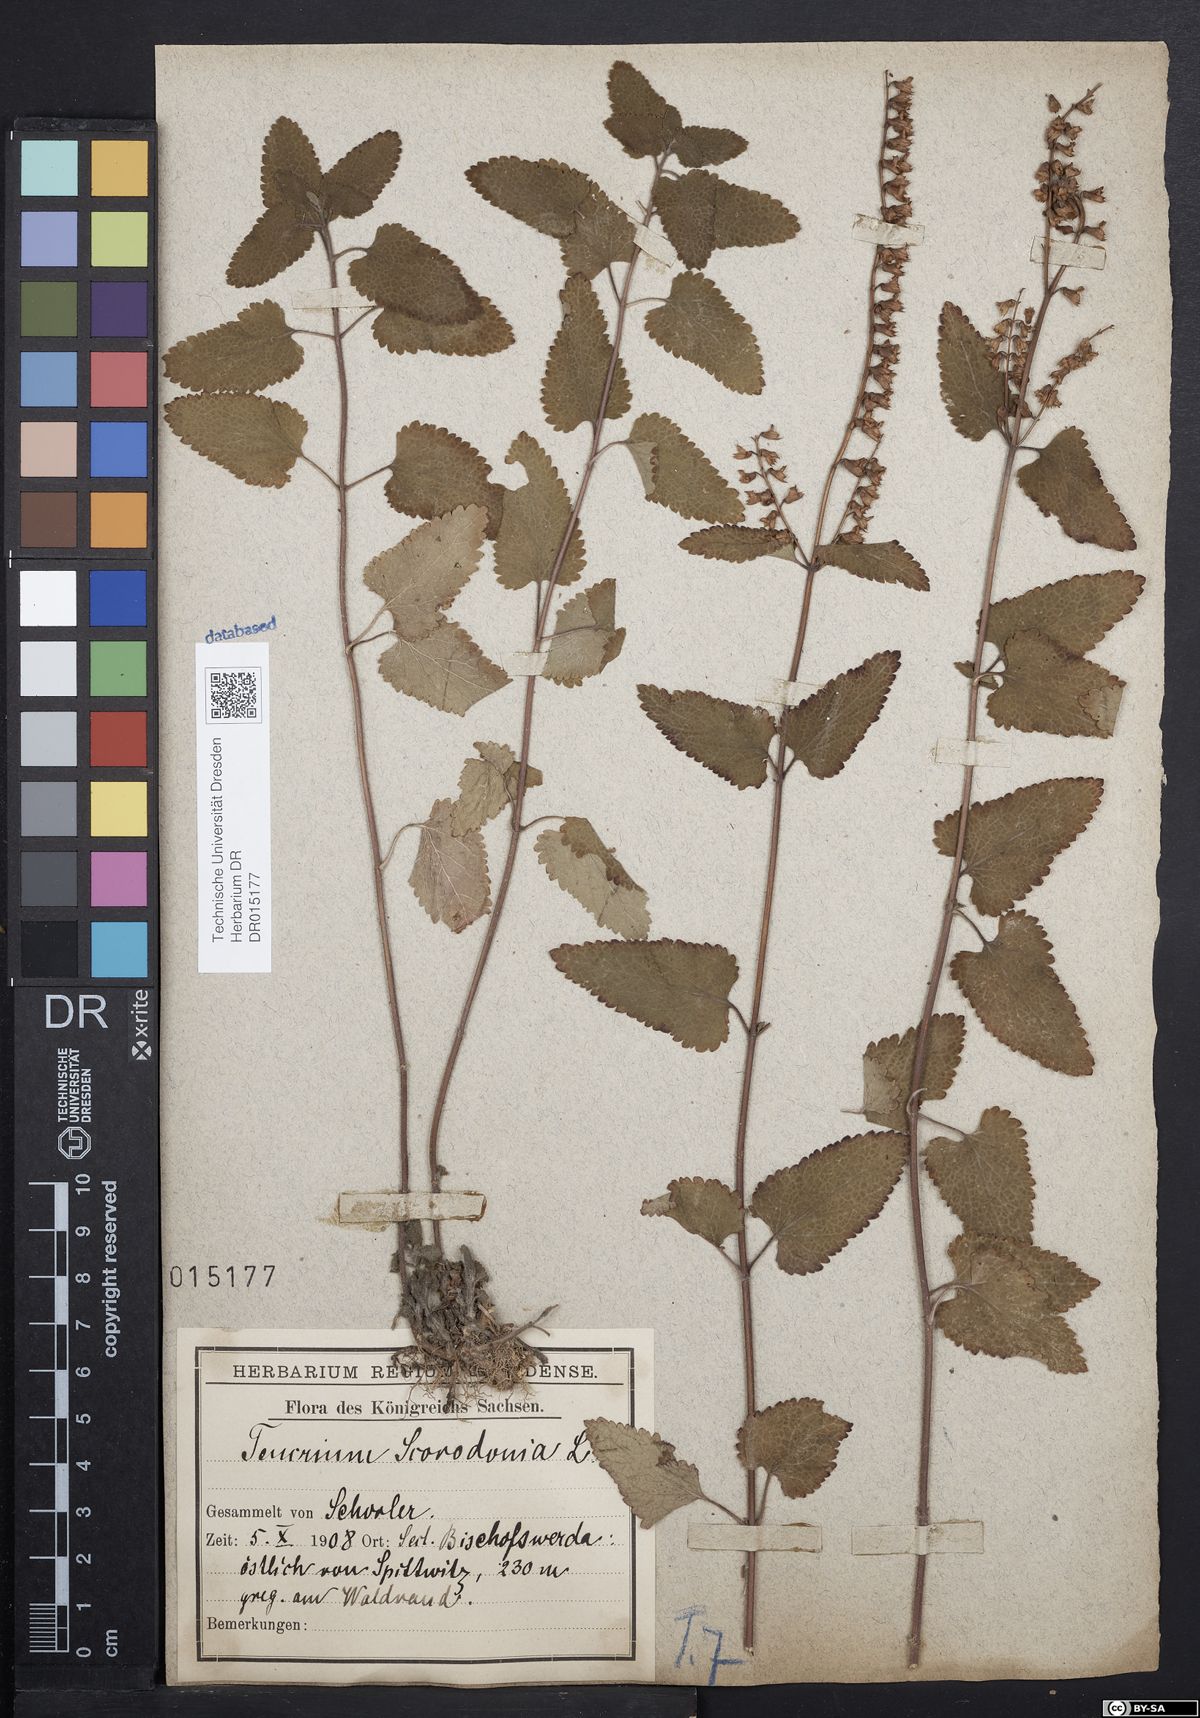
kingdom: Plantae
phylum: Tracheophyta
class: Magnoliopsida
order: Lamiales
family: Lamiaceae
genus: Teucrium
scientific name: Teucrium scorodonia
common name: Woodland germander
